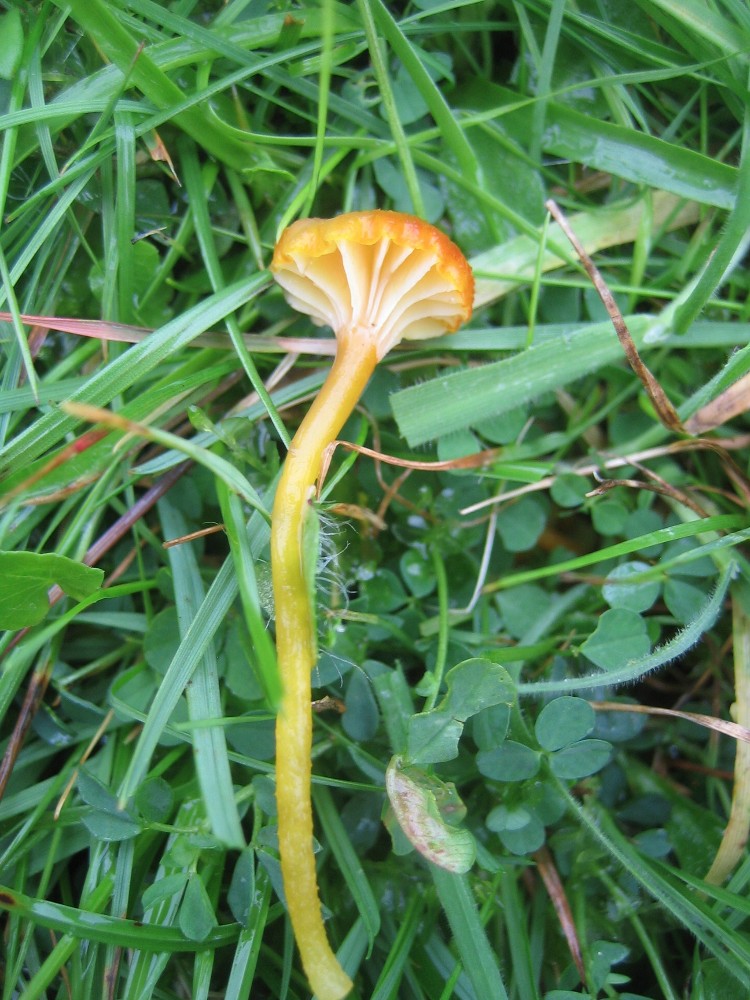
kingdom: Fungi
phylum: Basidiomycota
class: Agaricomycetes
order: Agaricales
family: Hygrophoraceae
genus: Hygrocybe
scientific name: Hygrocybe cantharellus
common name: kantarel-vokshat
